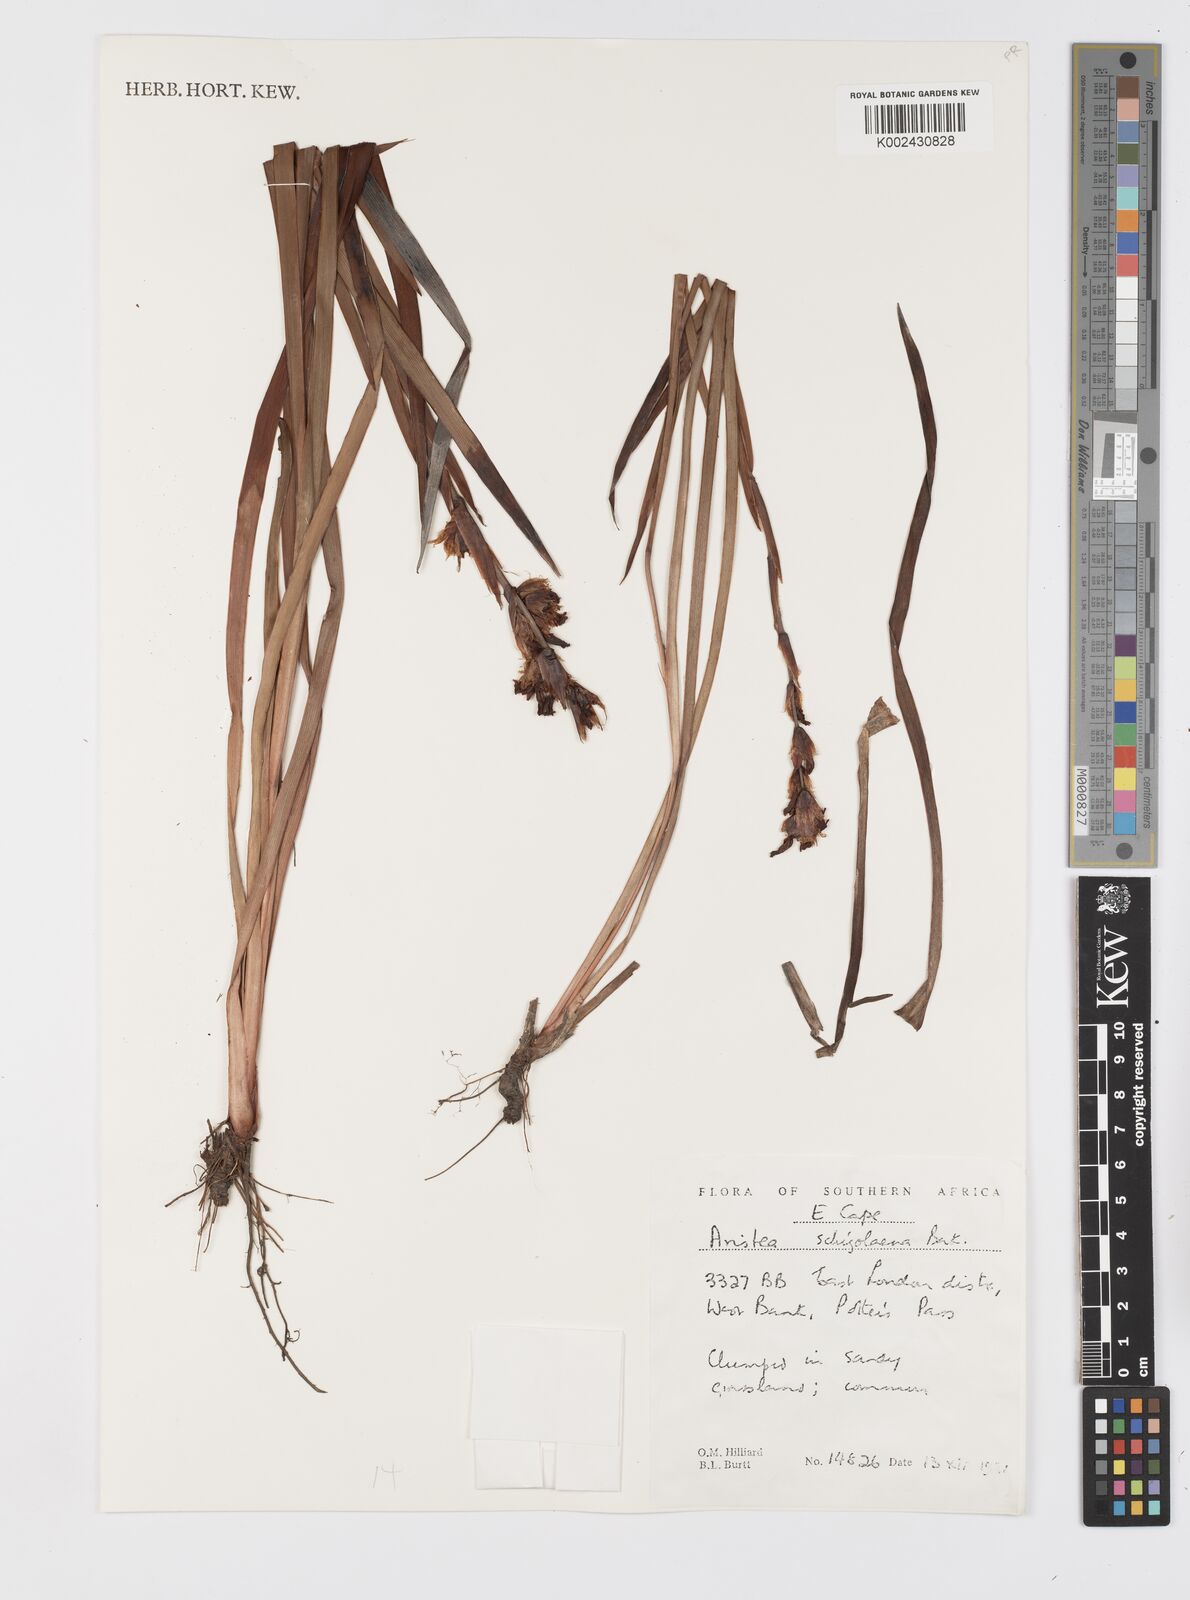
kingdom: Plantae
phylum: Tracheophyta
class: Liliopsida
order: Asparagales
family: Iridaceae
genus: Aristea
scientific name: Aristea schizolaena
